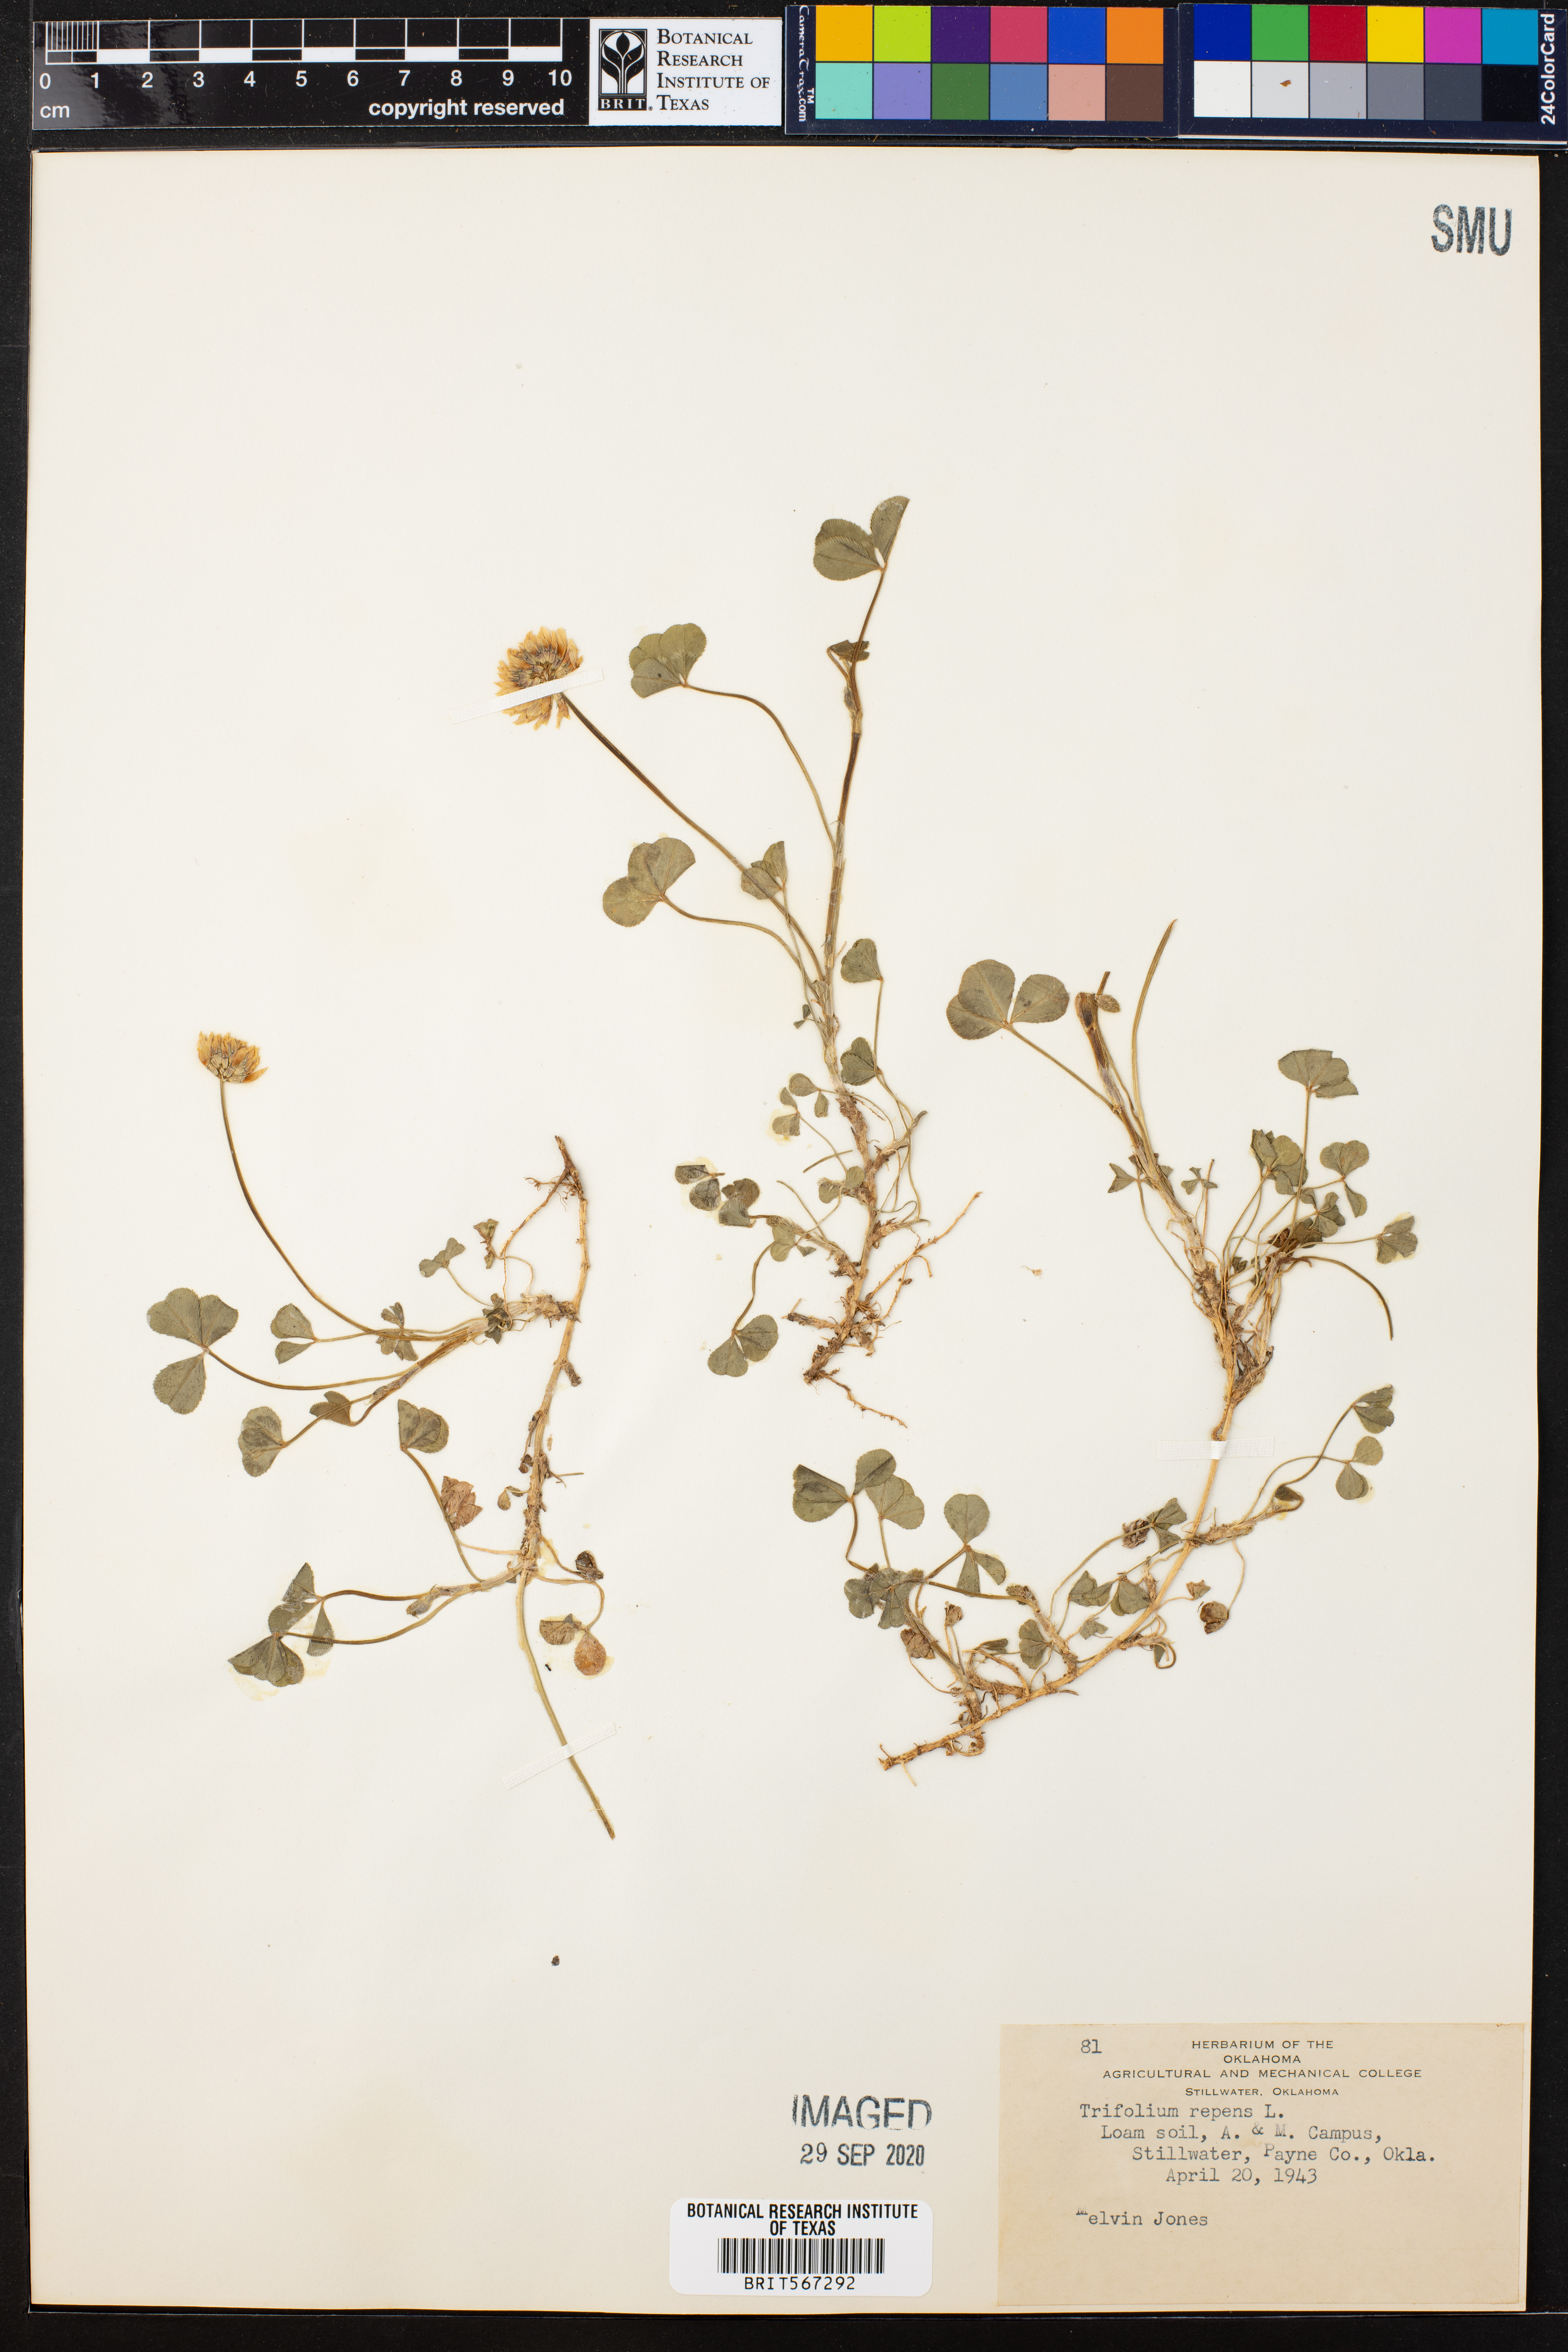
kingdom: Plantae
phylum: Tracheophyta
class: Magnoliopsida
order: Fabales
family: Fabaceae
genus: Trifolium
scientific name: Trifolium repens
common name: White clover
